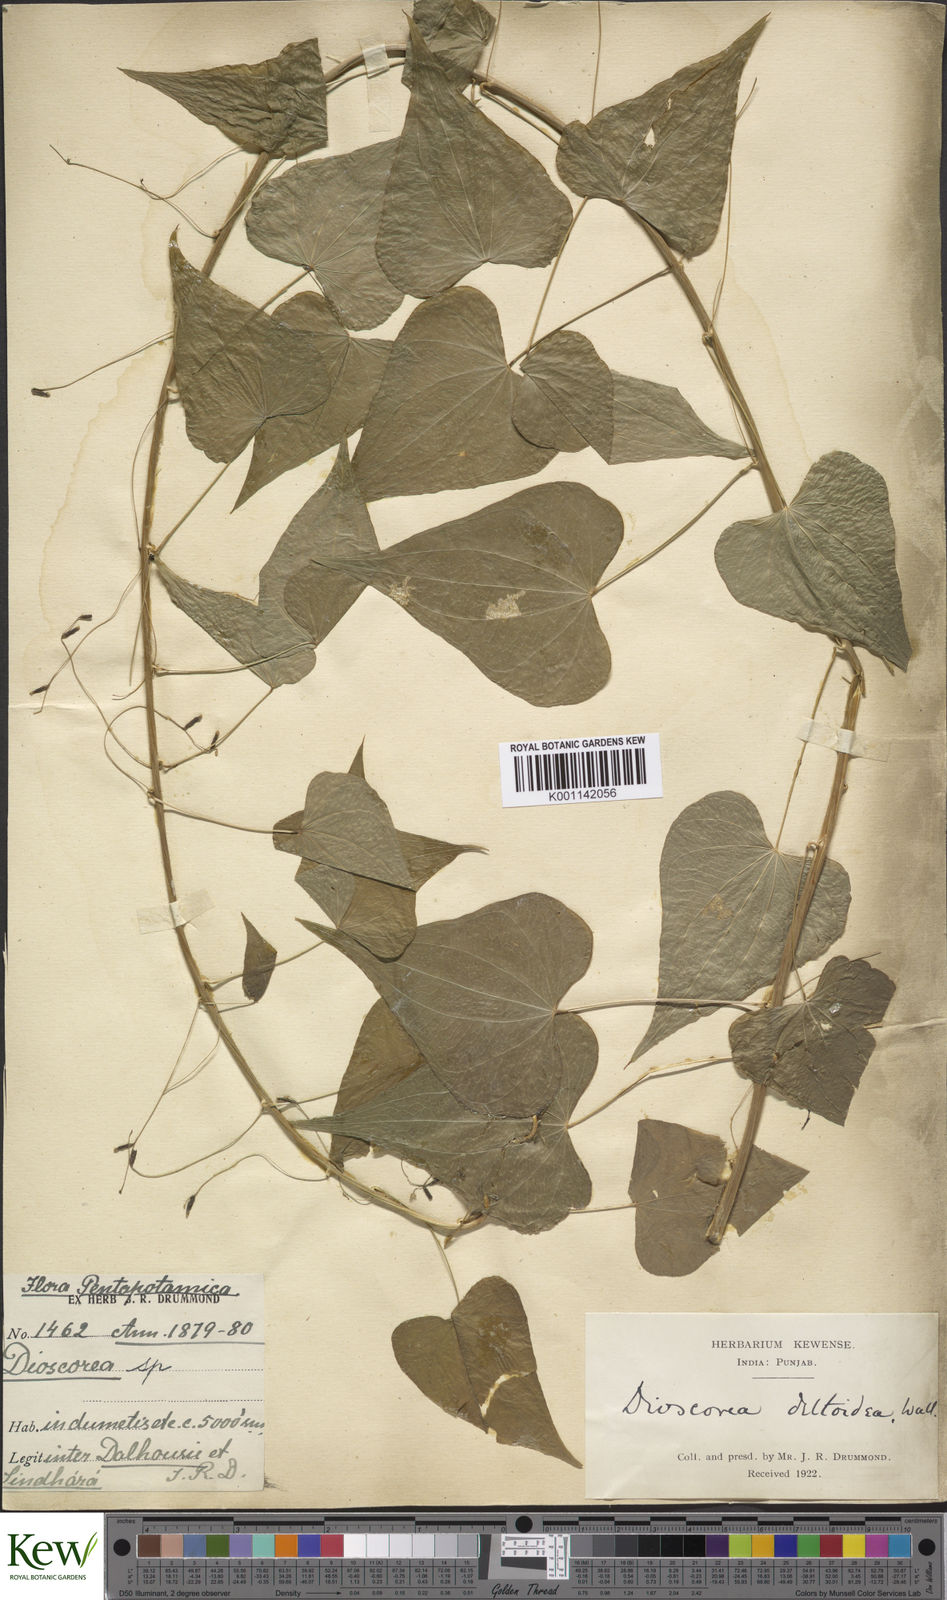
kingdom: Plantae
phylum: Tracheophyta
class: Liliopsida
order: Dioscoreales
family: Dioscoreaceae
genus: Dioscorea
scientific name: Dioscorea deltoidea
